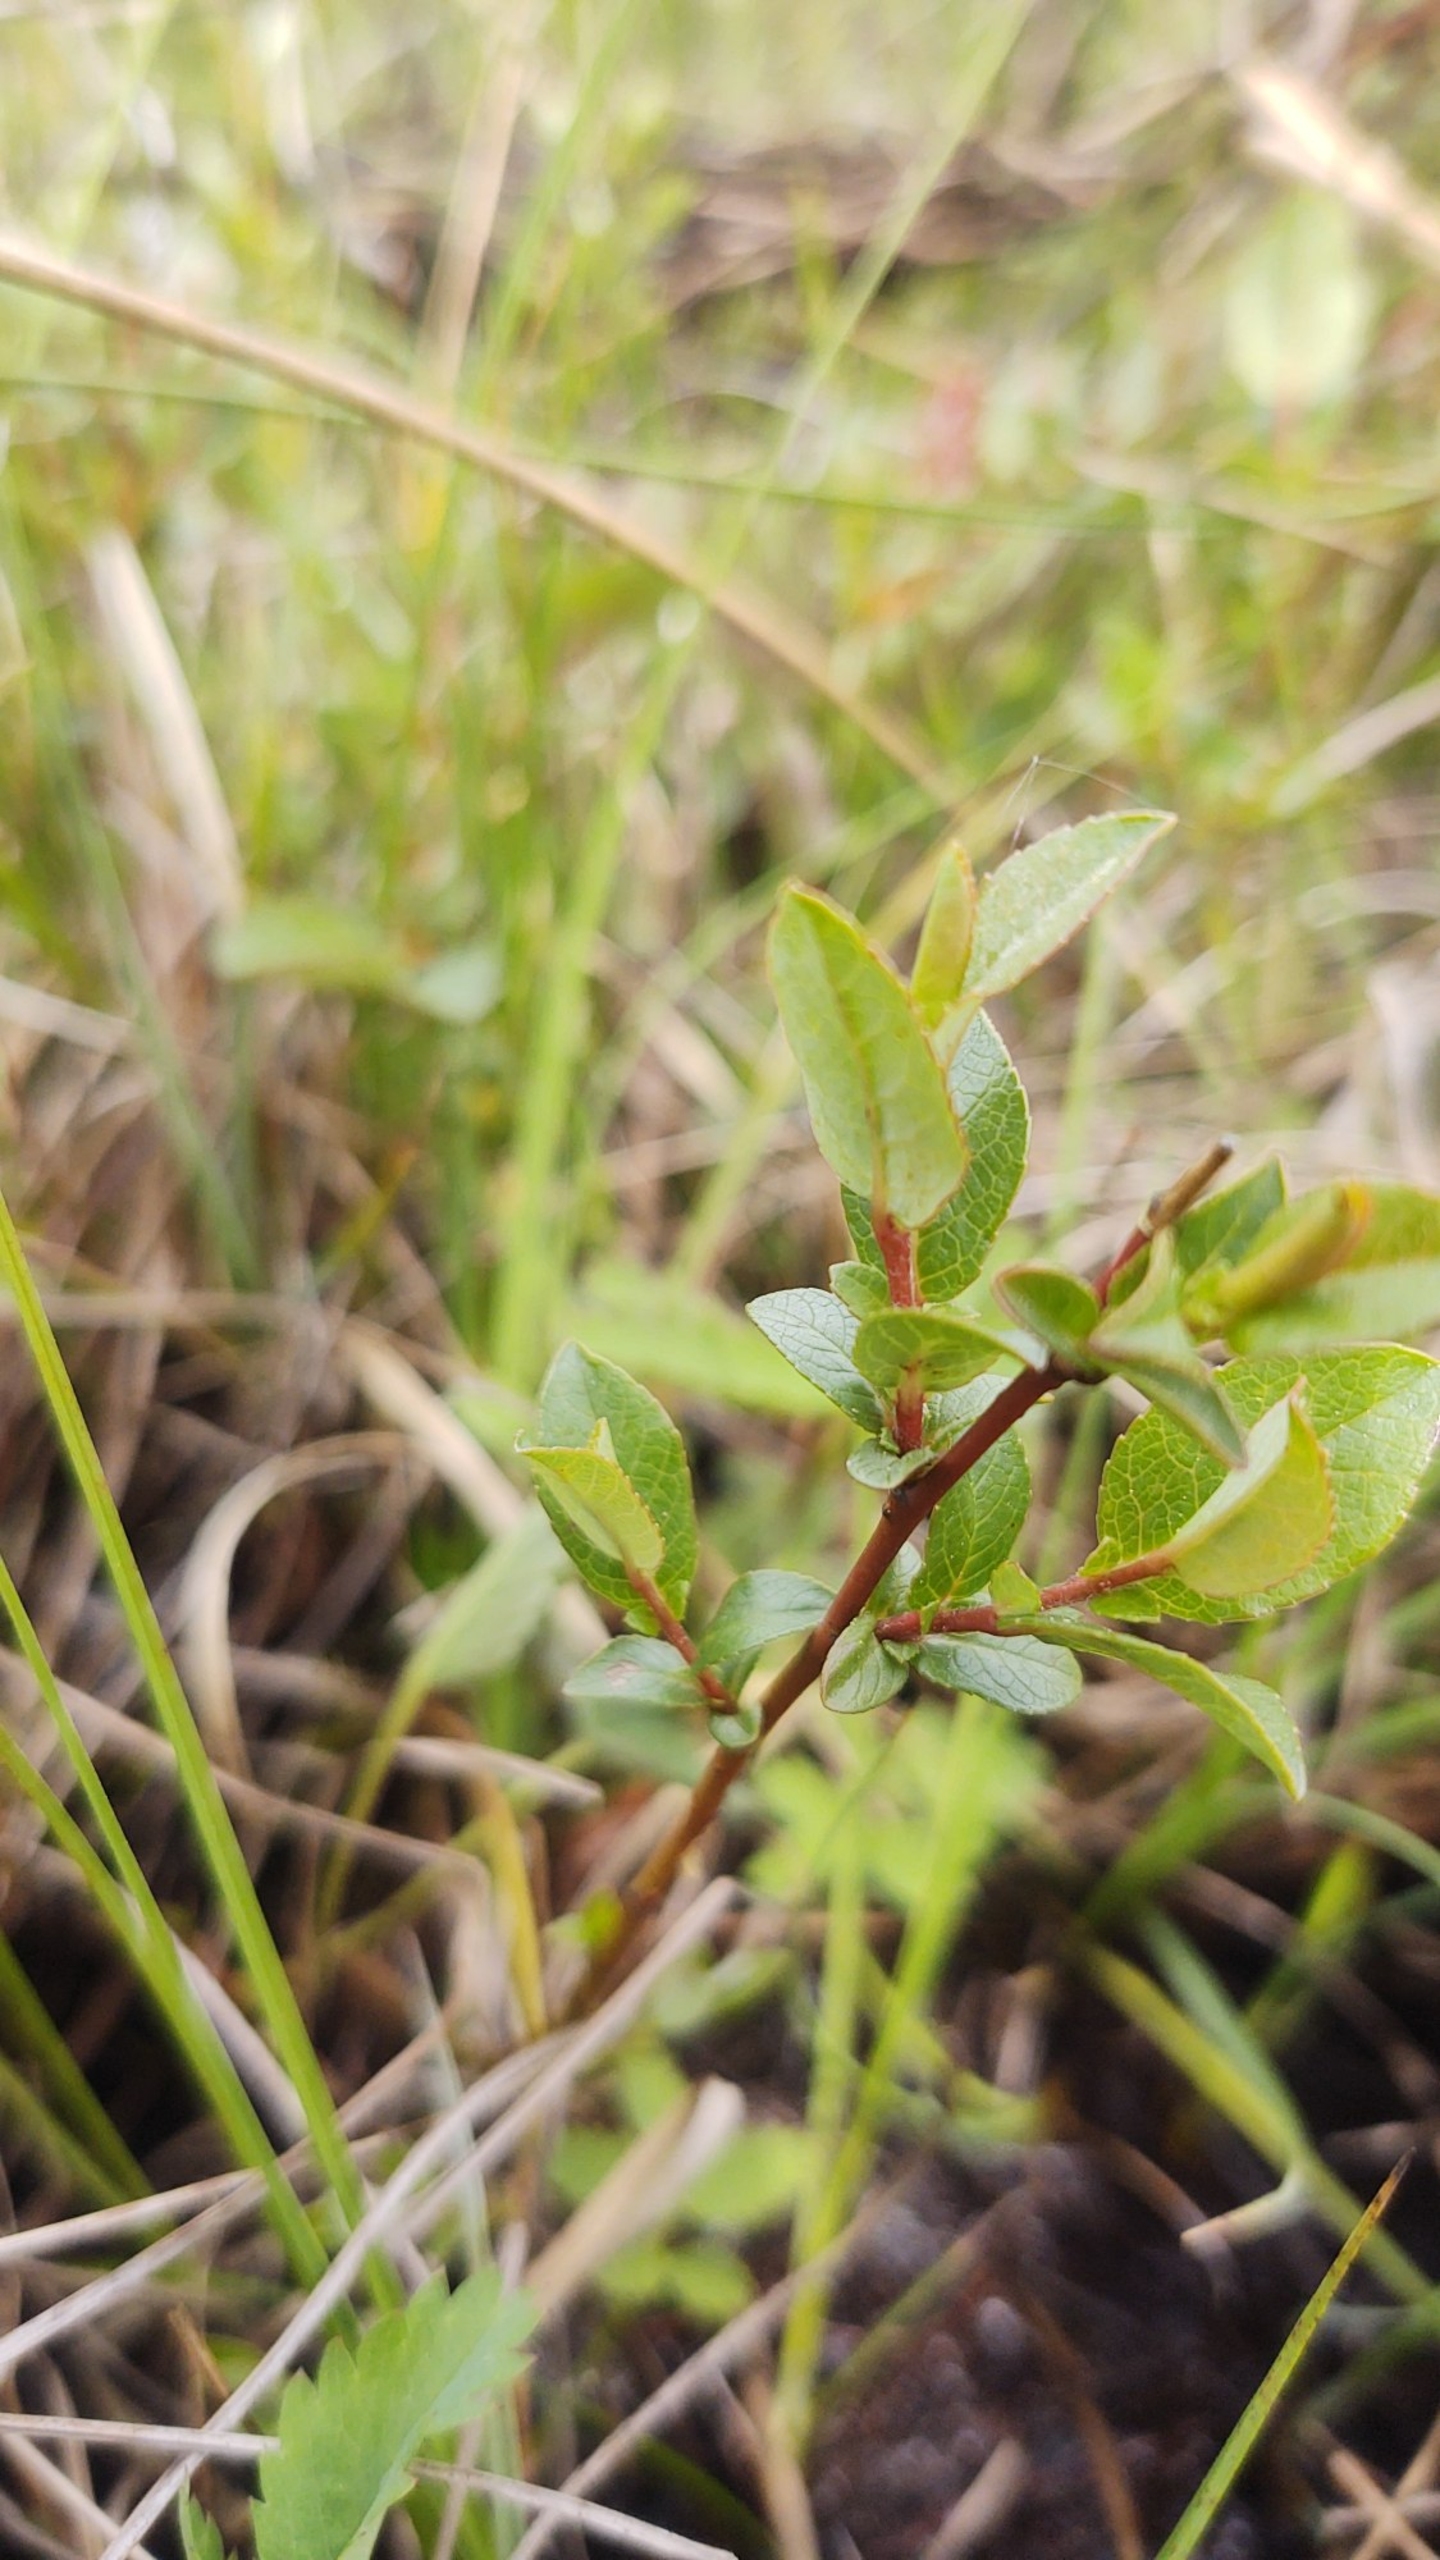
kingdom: Plantae
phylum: Tracheophyta
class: Magnoliopsida
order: Malpighiales
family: Salicaceae
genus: Salix
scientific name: Salix hastata
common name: Spyd-pil
